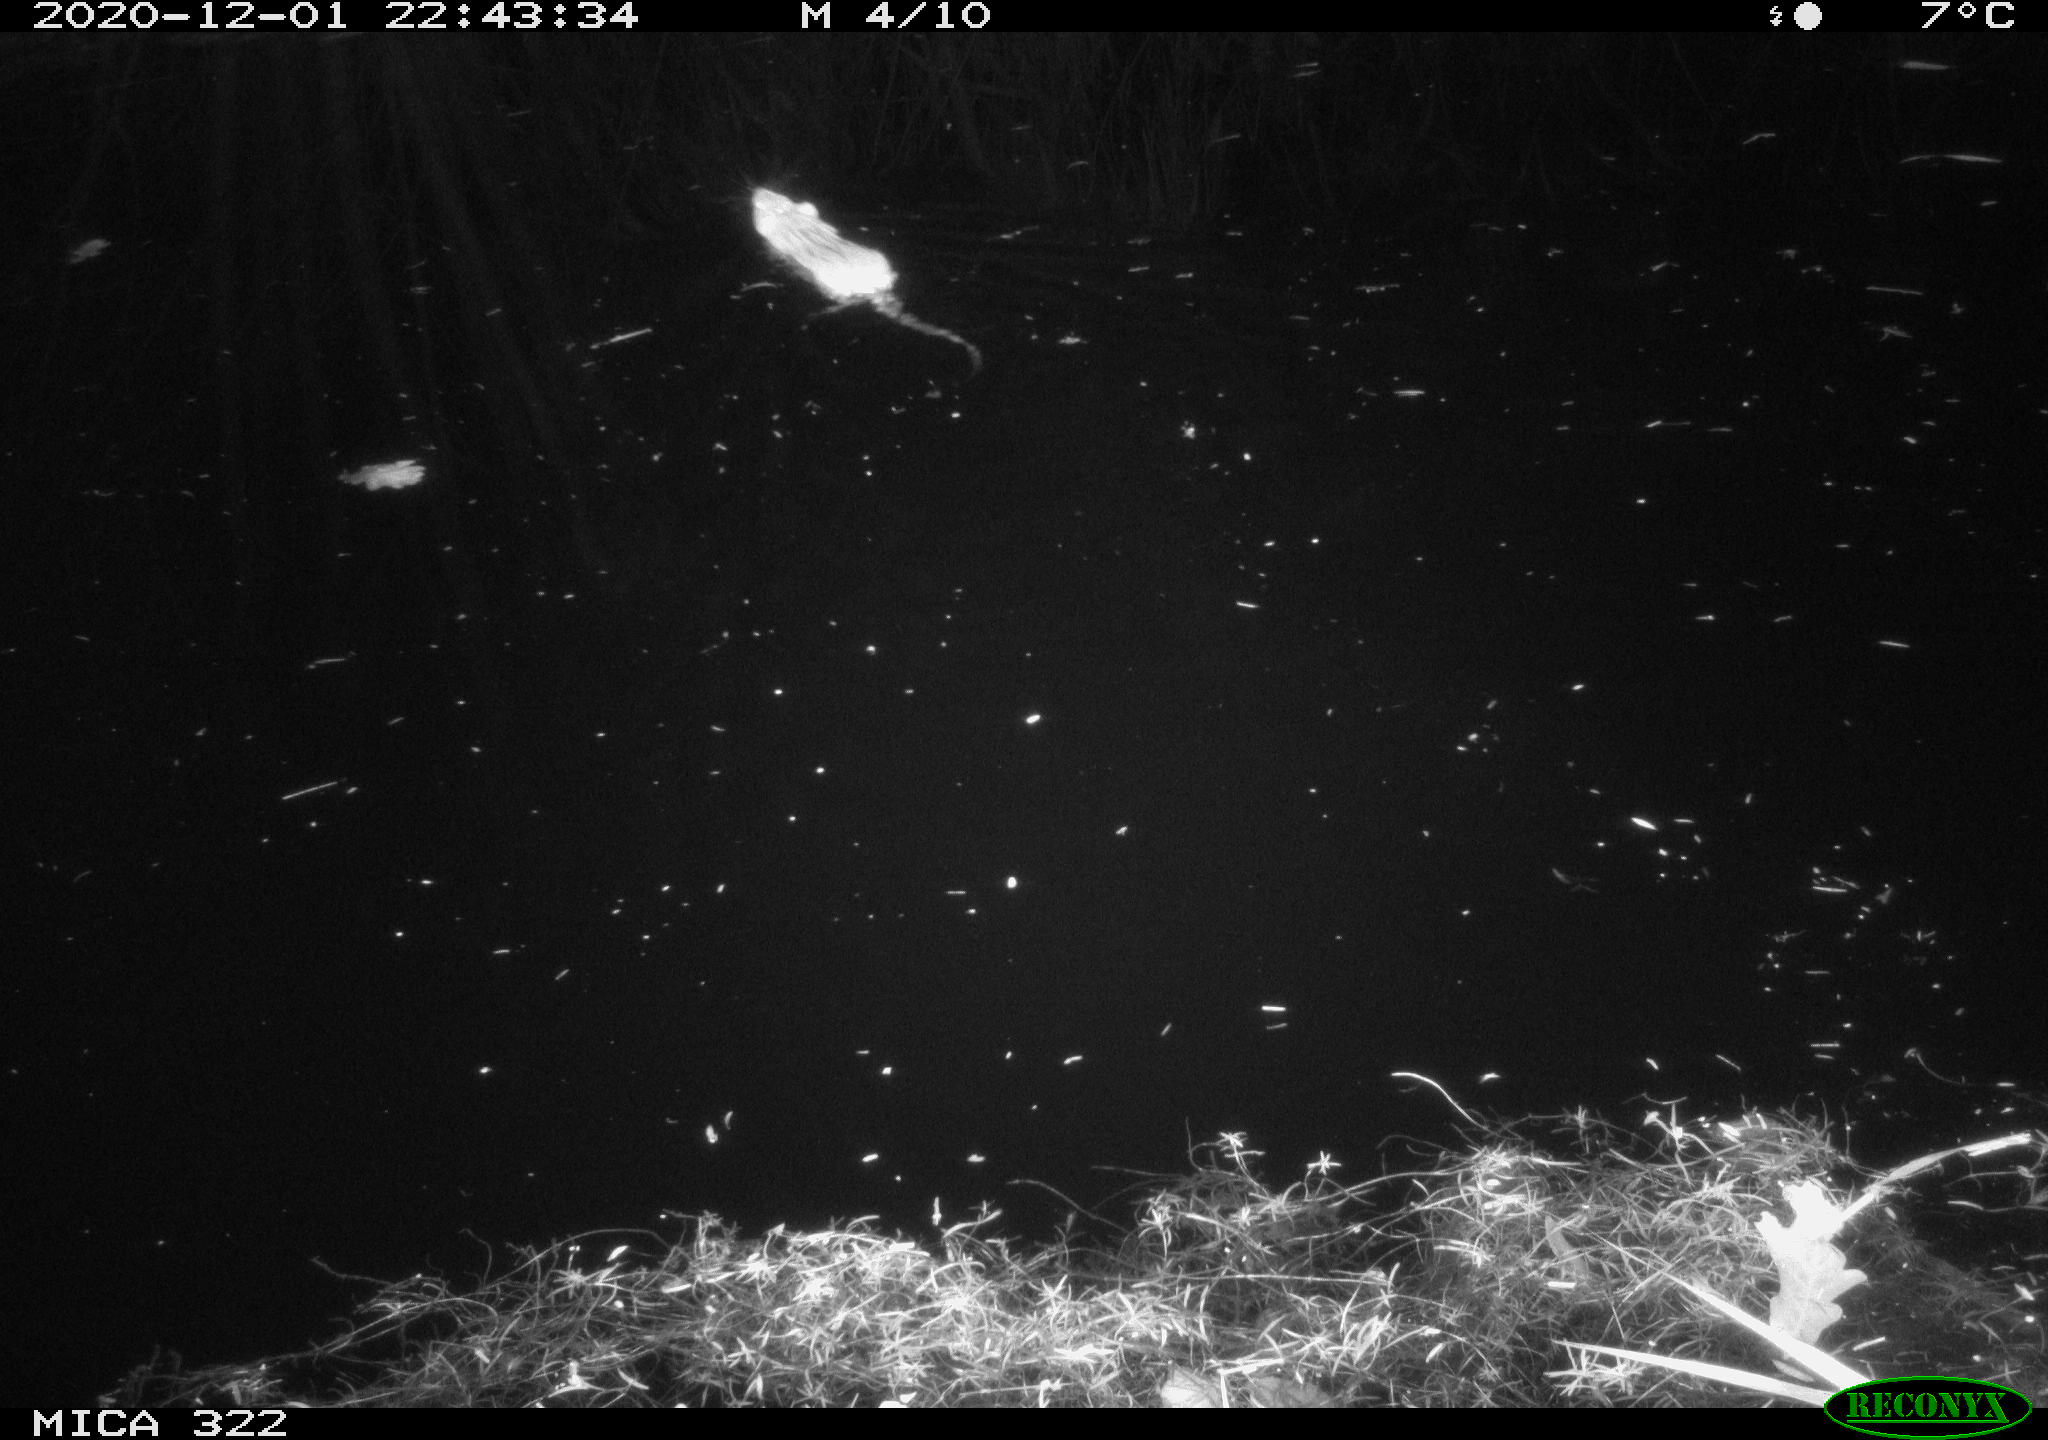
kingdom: Animalia
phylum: Chordata
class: Mammalia
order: Rodentia
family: Muridae
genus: Rattus
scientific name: Rattus norvegicus
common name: Brown rat
